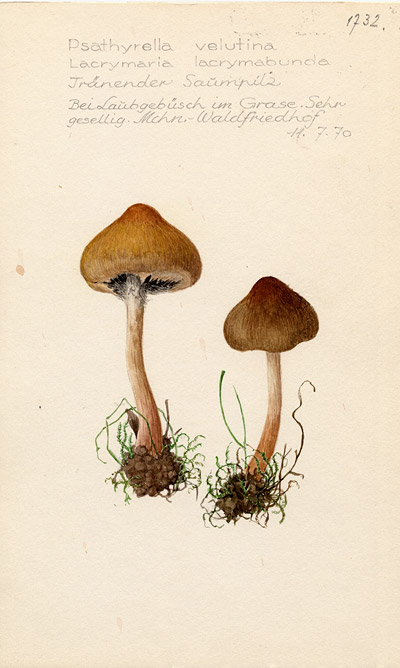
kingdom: Fungi
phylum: Basidiomycota
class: Agaricomycetes
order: Agaricales
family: Psathyrellaceae
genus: Lacrymaria
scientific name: Lacrymaria lacrymabunda
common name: Weeping widow
